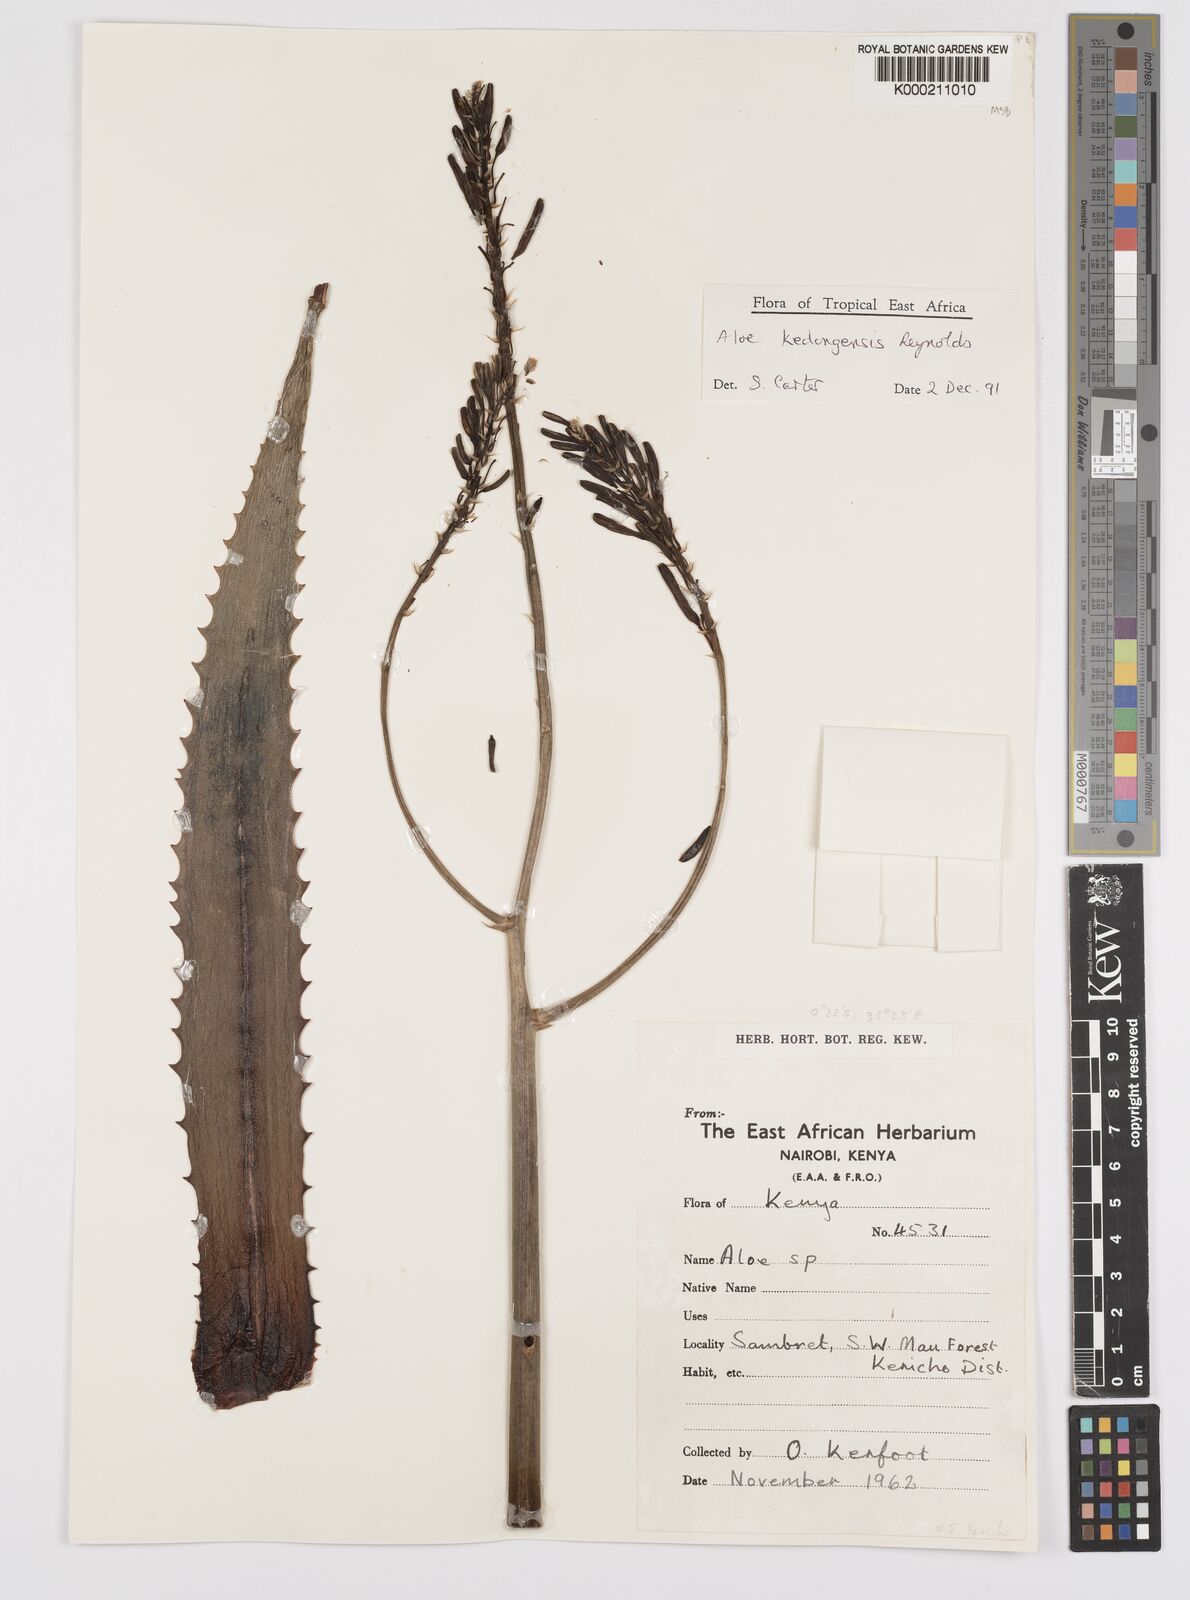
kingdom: Plantae
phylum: Tracheophyta
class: Liliopsida
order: Asparagales
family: Asphodelaceae
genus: Aloe
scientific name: Aloe kedongensis
